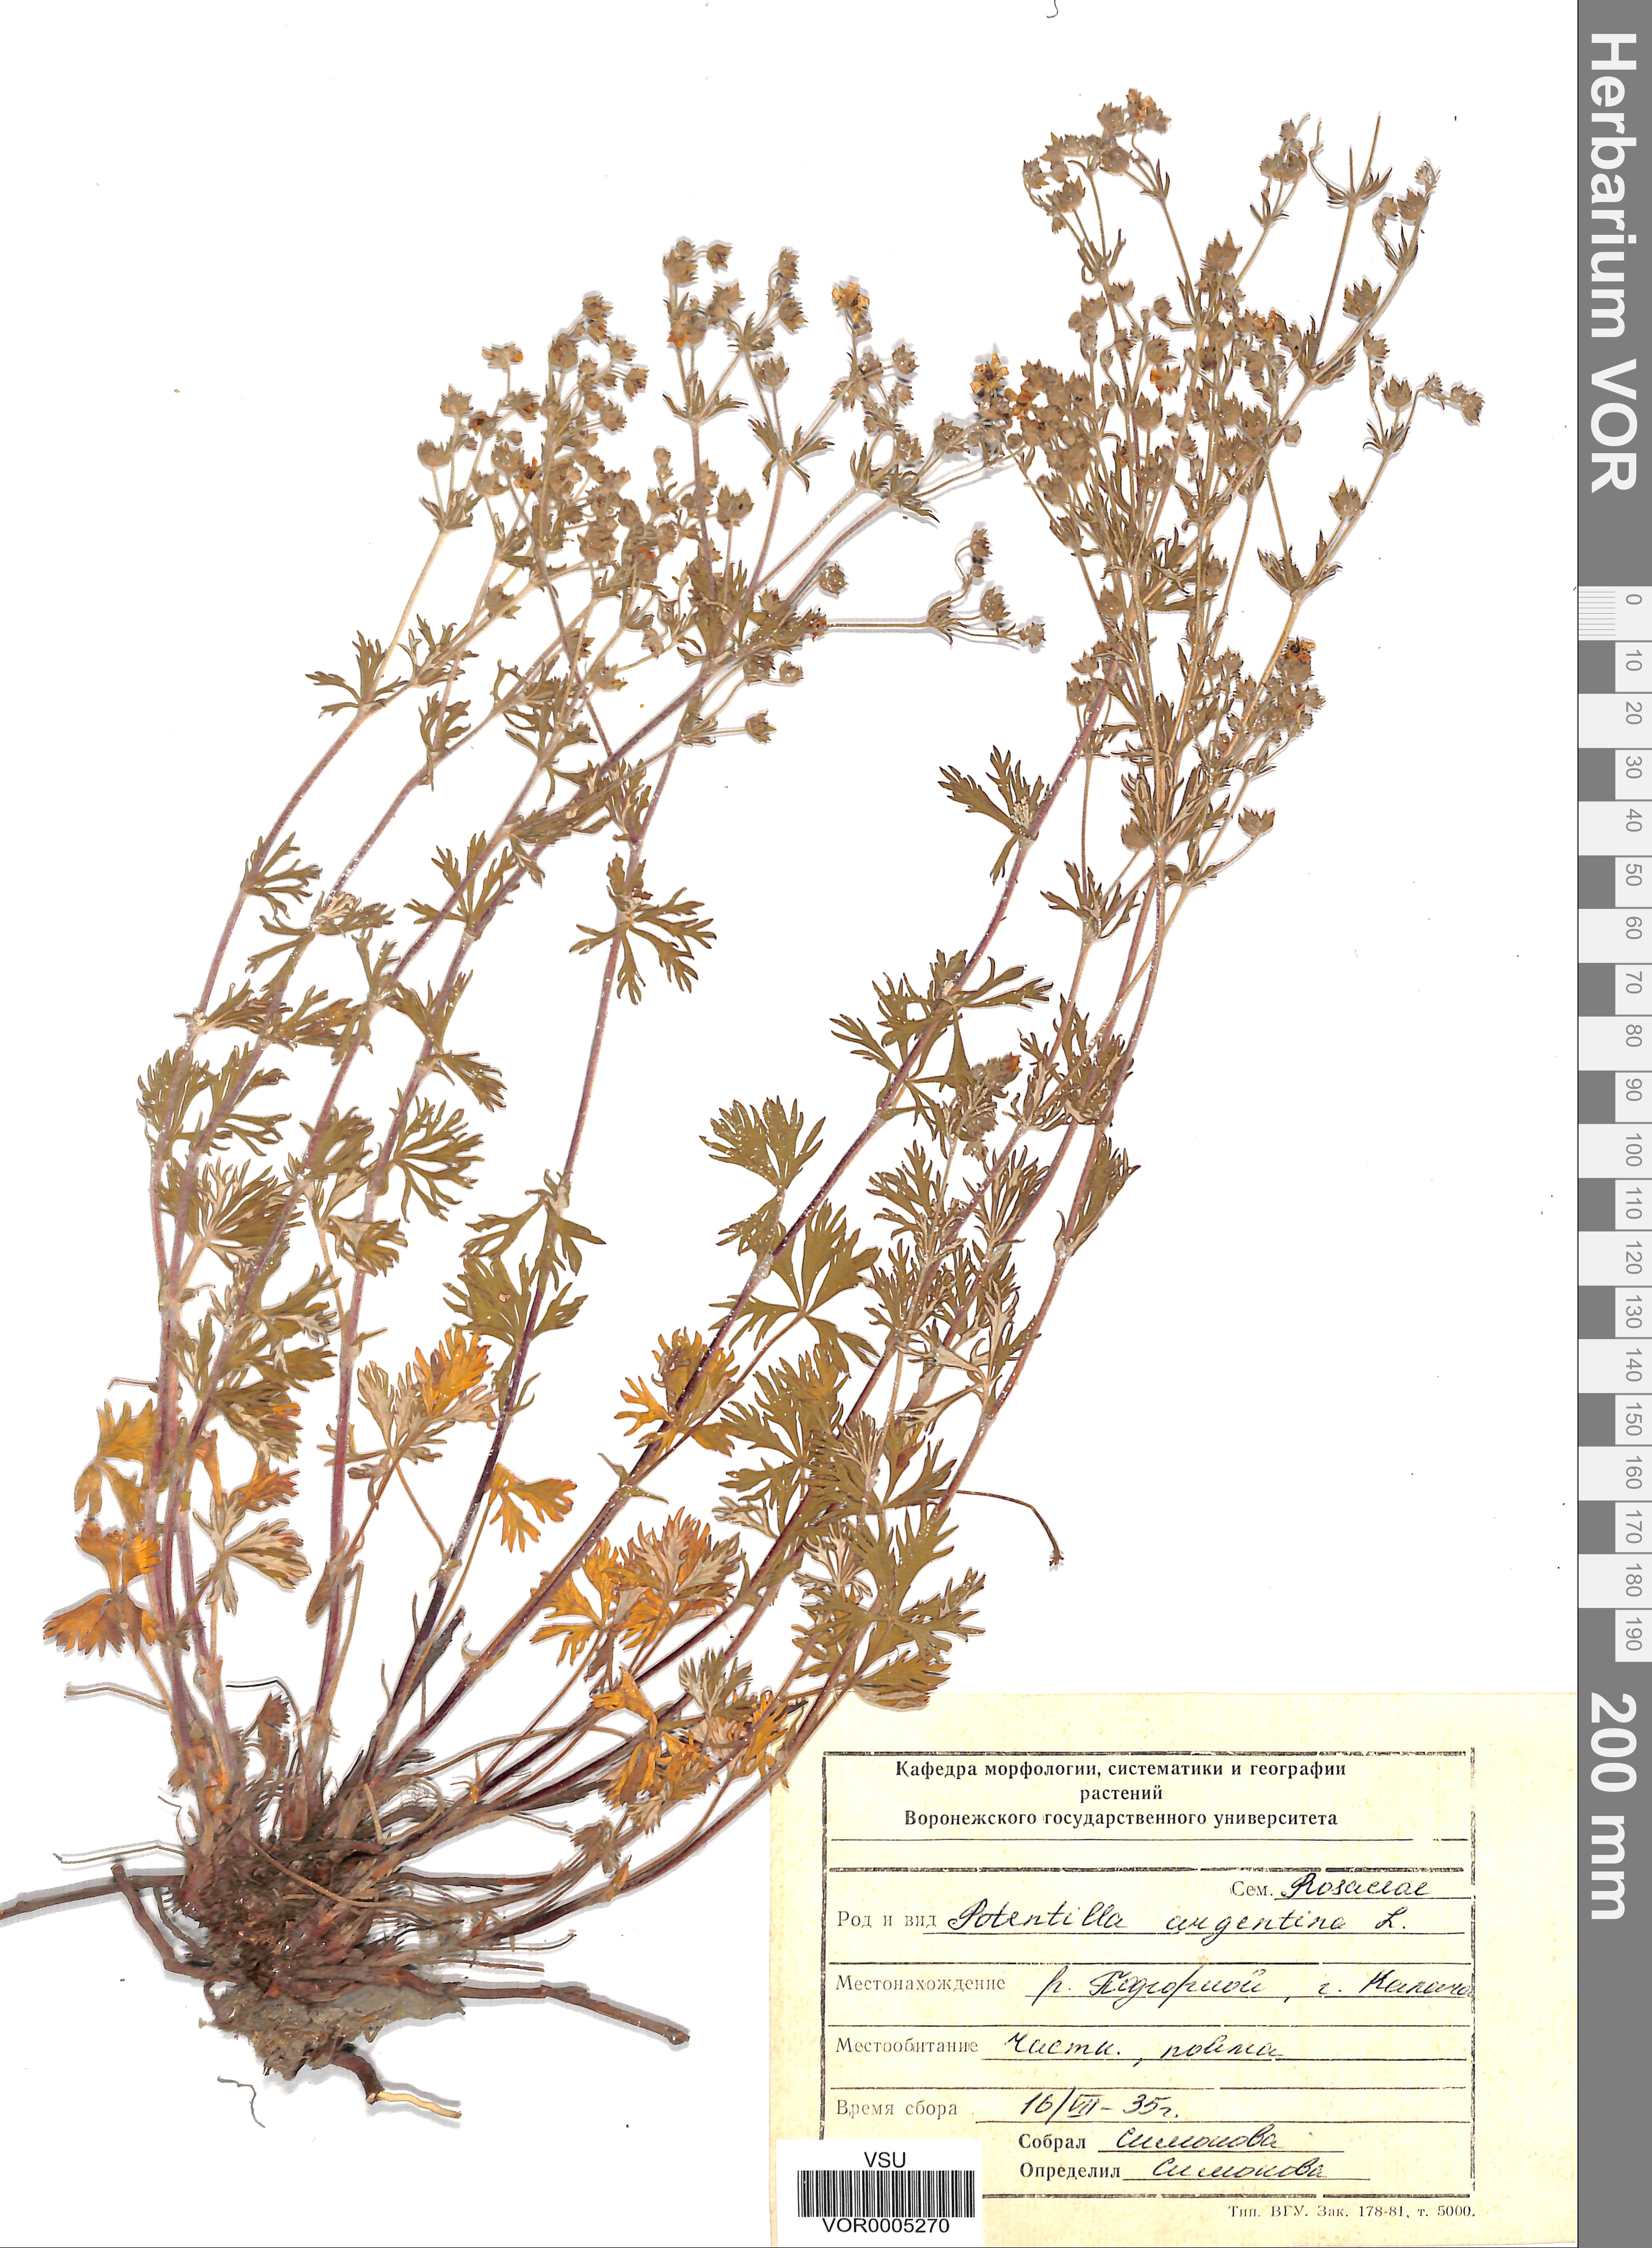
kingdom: Plantae
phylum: Tracheophyta
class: Magnoliopsida
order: Rosales
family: Rosaceae
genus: Potentilla
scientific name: Potentilla argentea
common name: Hoary cinquefoil
